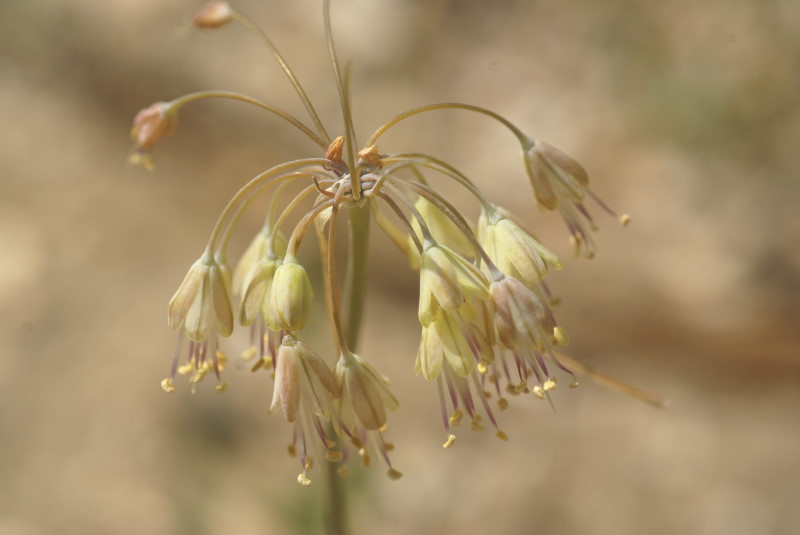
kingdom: Plantae
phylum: Tracheophyta
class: Liliopsida
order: Asparagales
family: Amaryllidaceae
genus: Allium
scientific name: Allium praescissum
